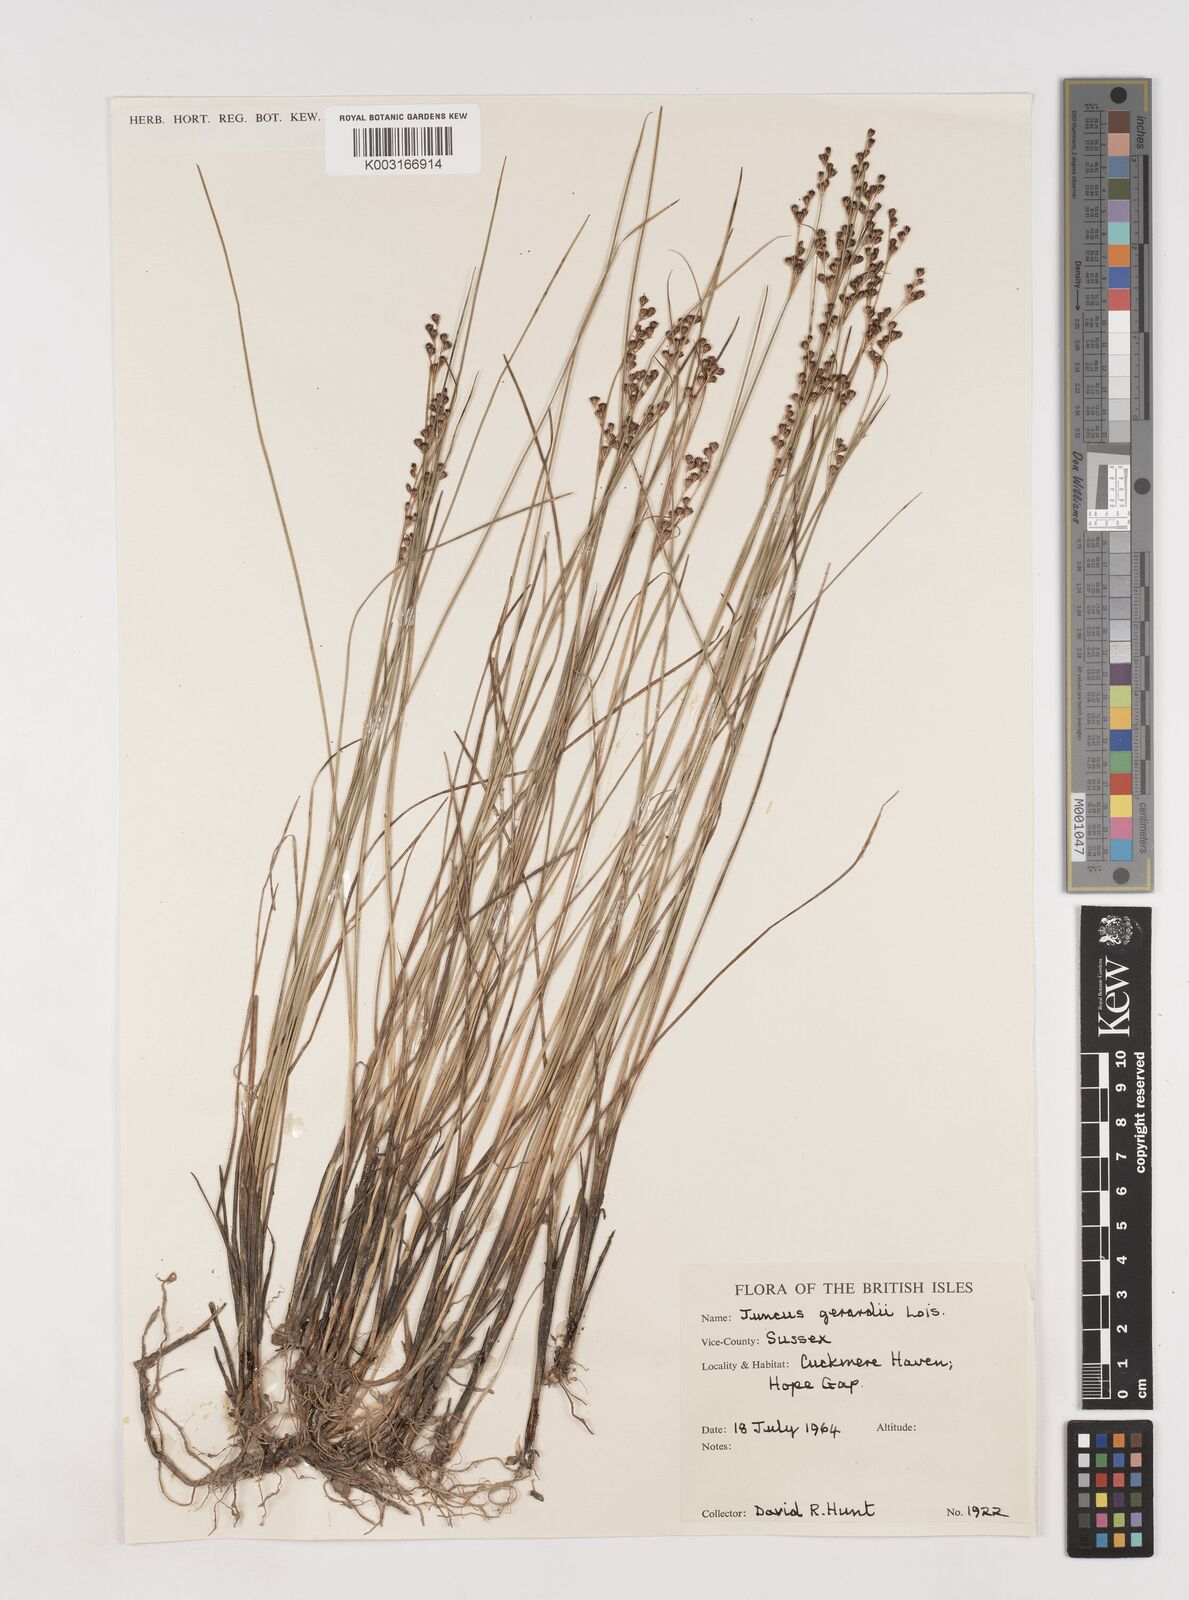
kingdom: Plantae
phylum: Tracheophyta
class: Liliopsida
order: Poales
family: Juncaceae
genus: Juncus
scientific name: Juncus gerardi
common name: Saltmarsh rush
